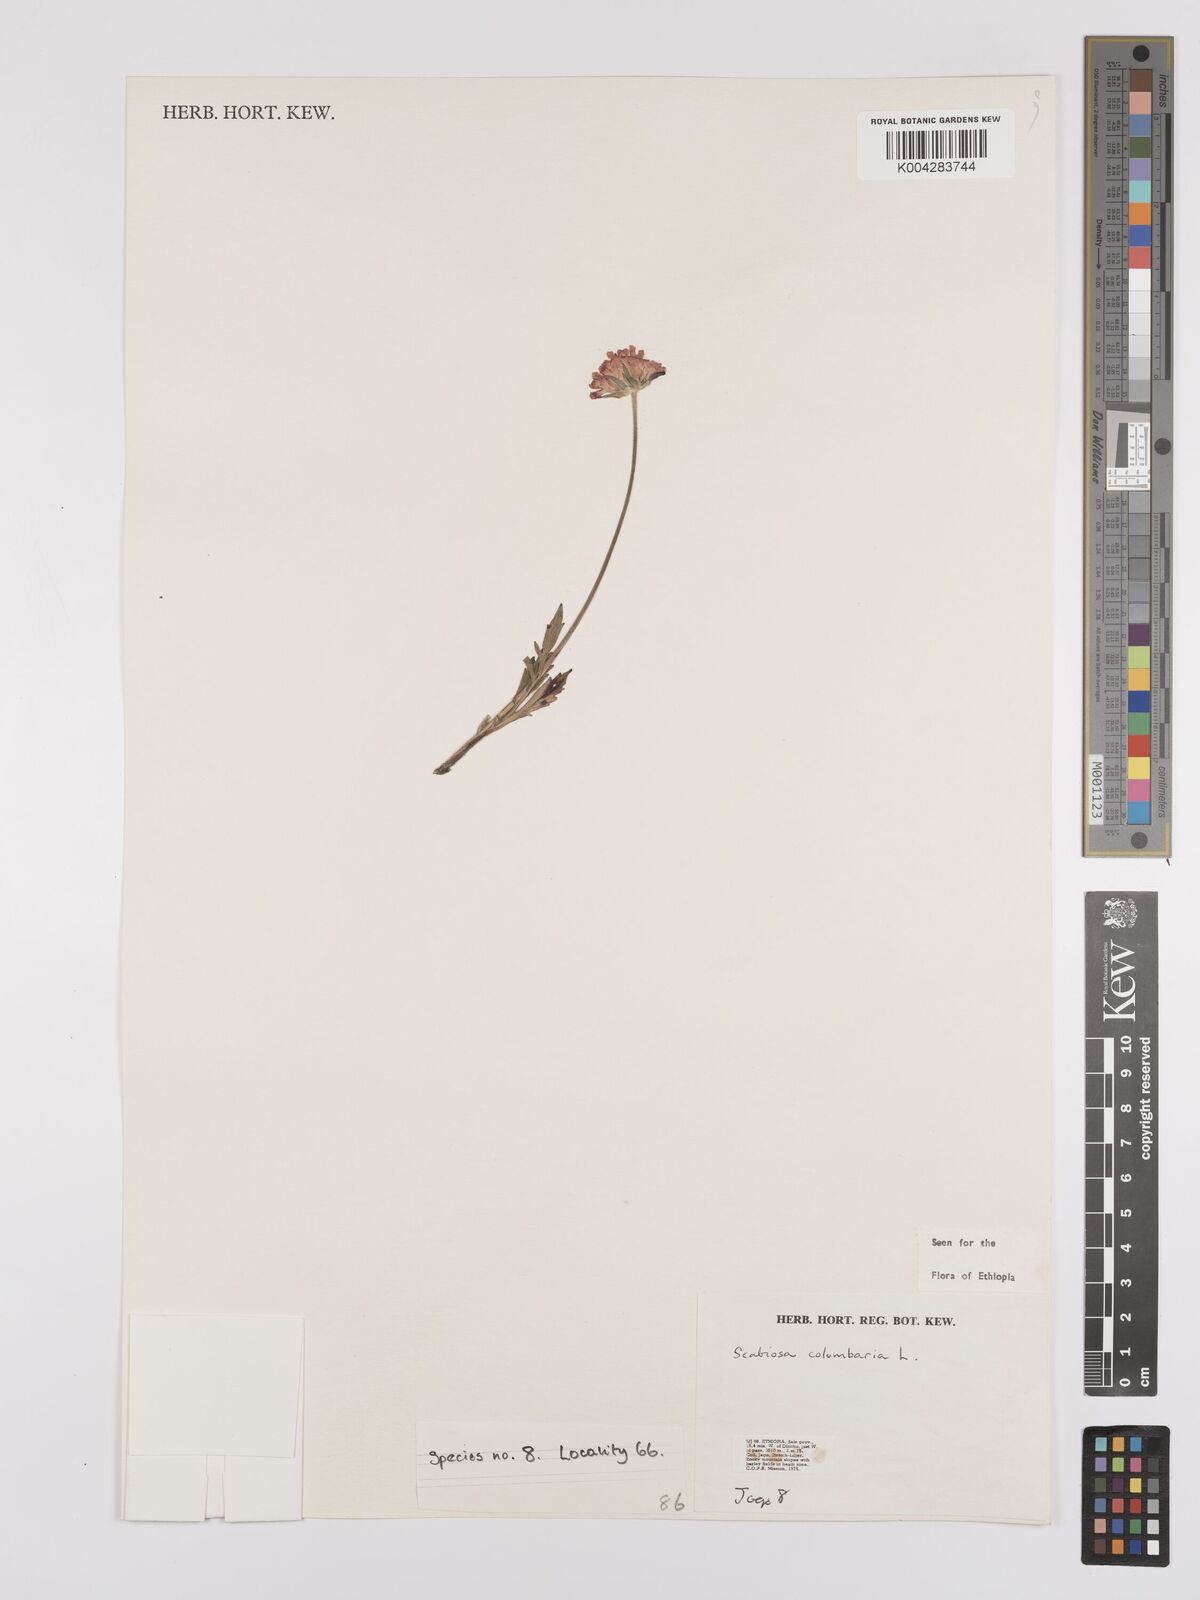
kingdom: Plantae
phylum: Tracheophyta
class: Magnoliopsida
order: Dipsacales
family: Caprifoliaceae
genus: Scabiosa
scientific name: Scabiosa columbaria
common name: Small scabious
